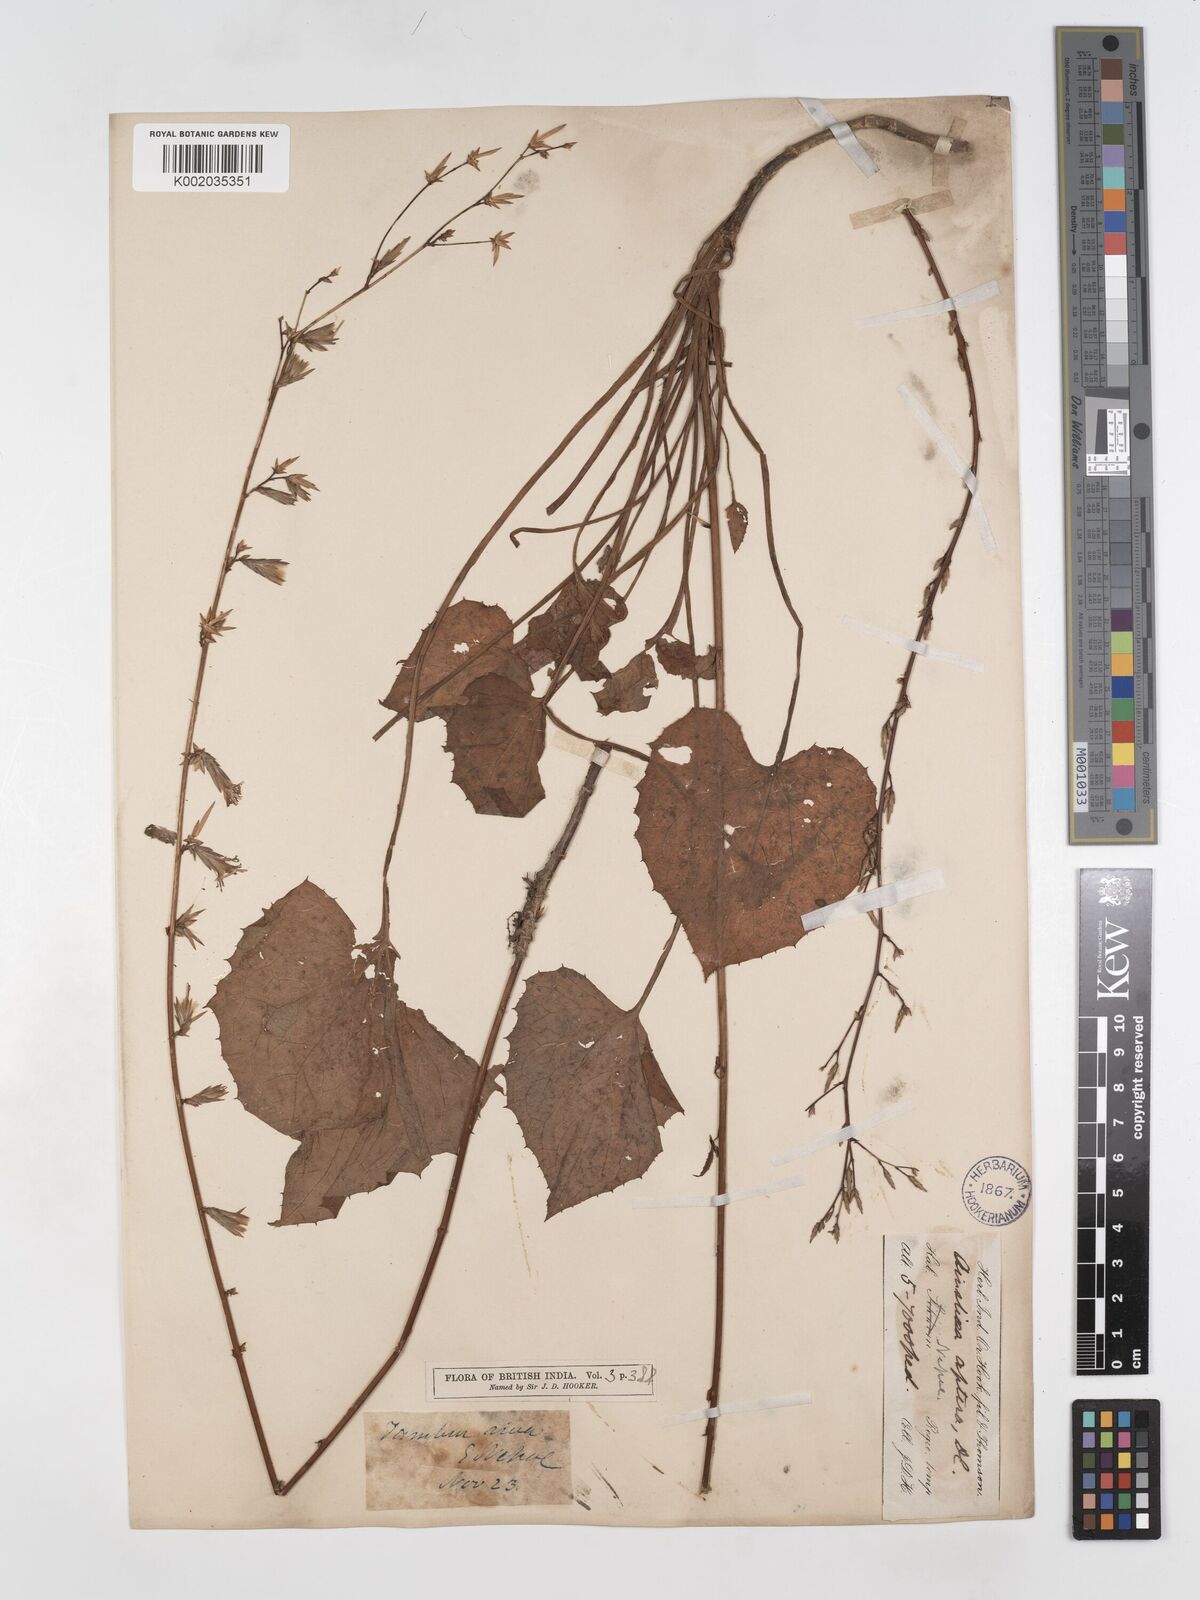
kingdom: Plantae
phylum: Tracheophyta
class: Magnoliopsida
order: Asterales
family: Asteraceae
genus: Ainsliaea
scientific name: Ainsliaea aptera
